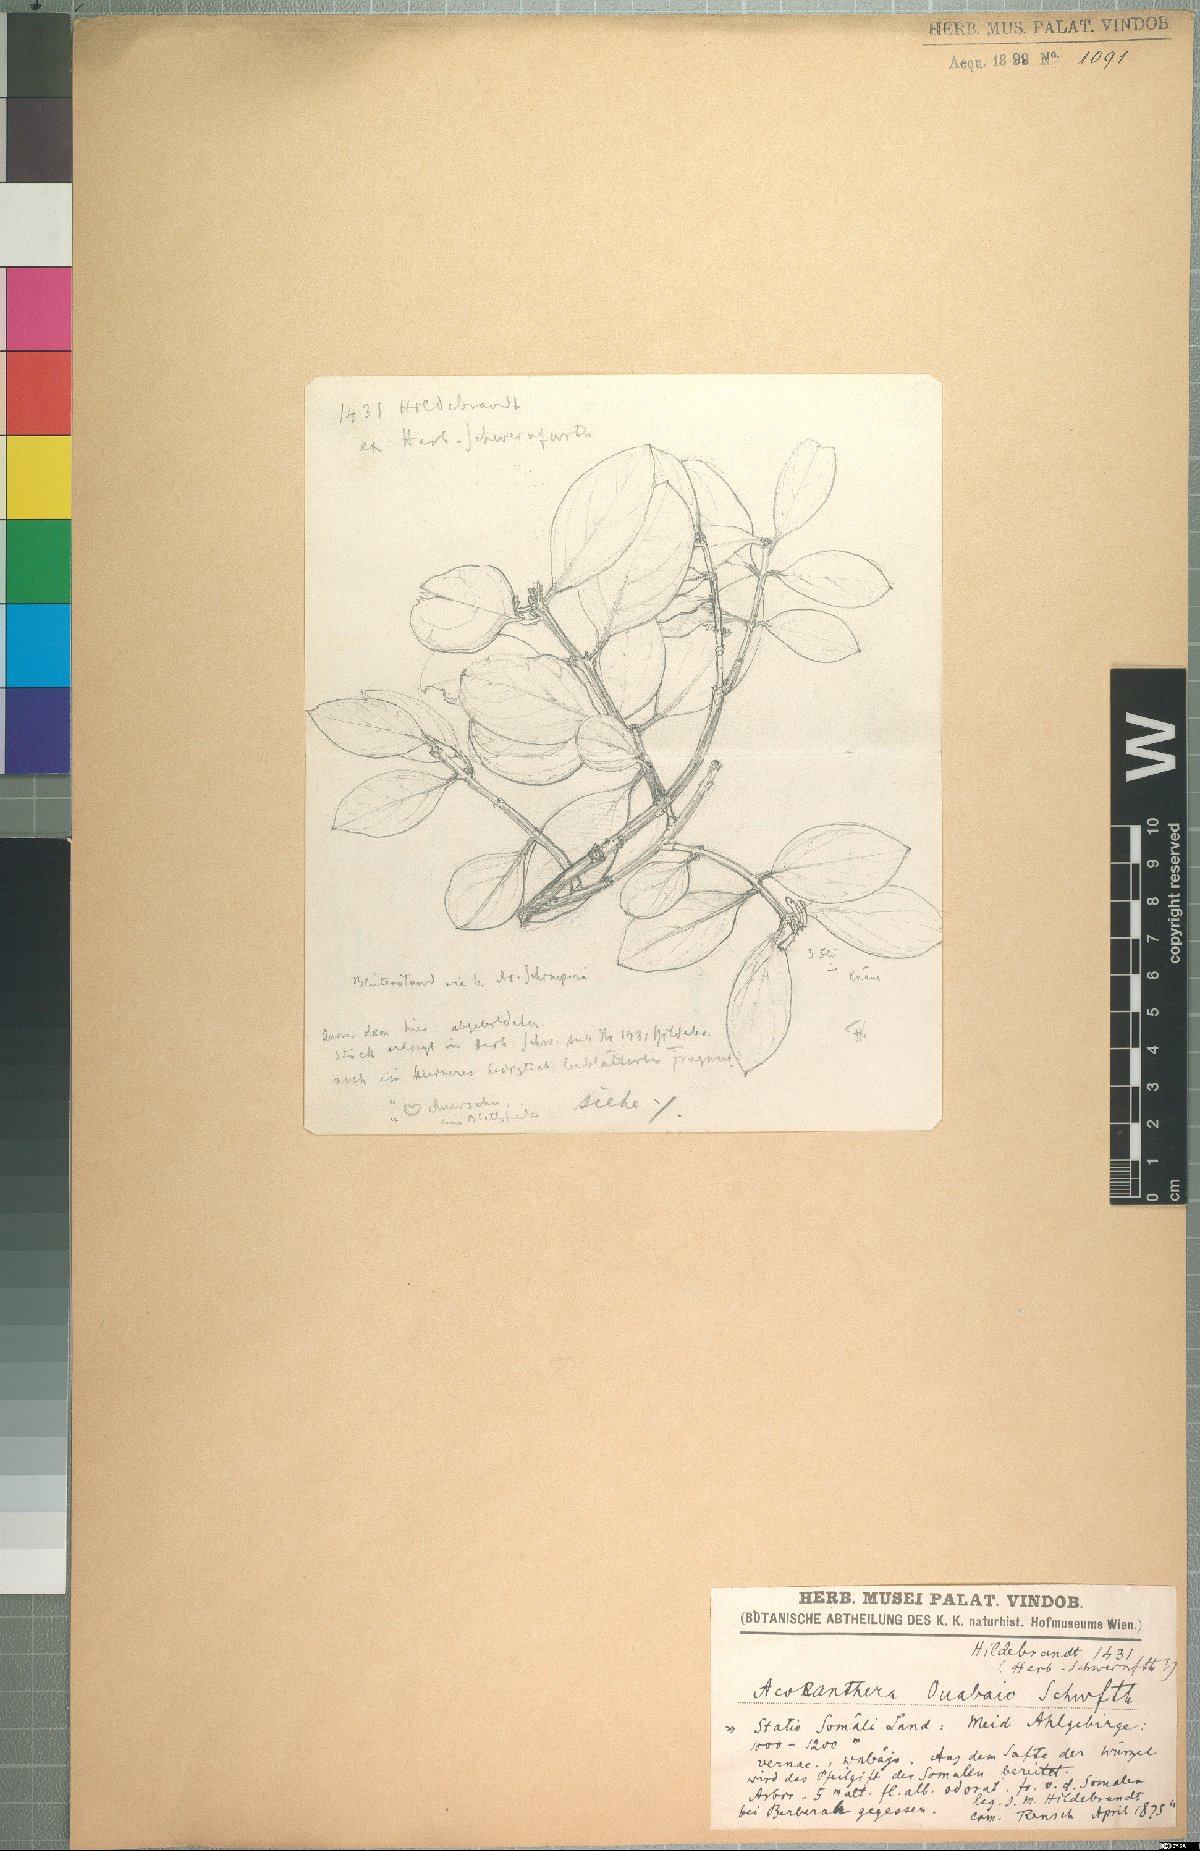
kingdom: Plantae
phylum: Tracheophyta
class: Magnoliopsida
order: Gentianales
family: Apocynaceae
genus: Acokanthera
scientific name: Acokanthera schimperi
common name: Arrow-poison-tree
